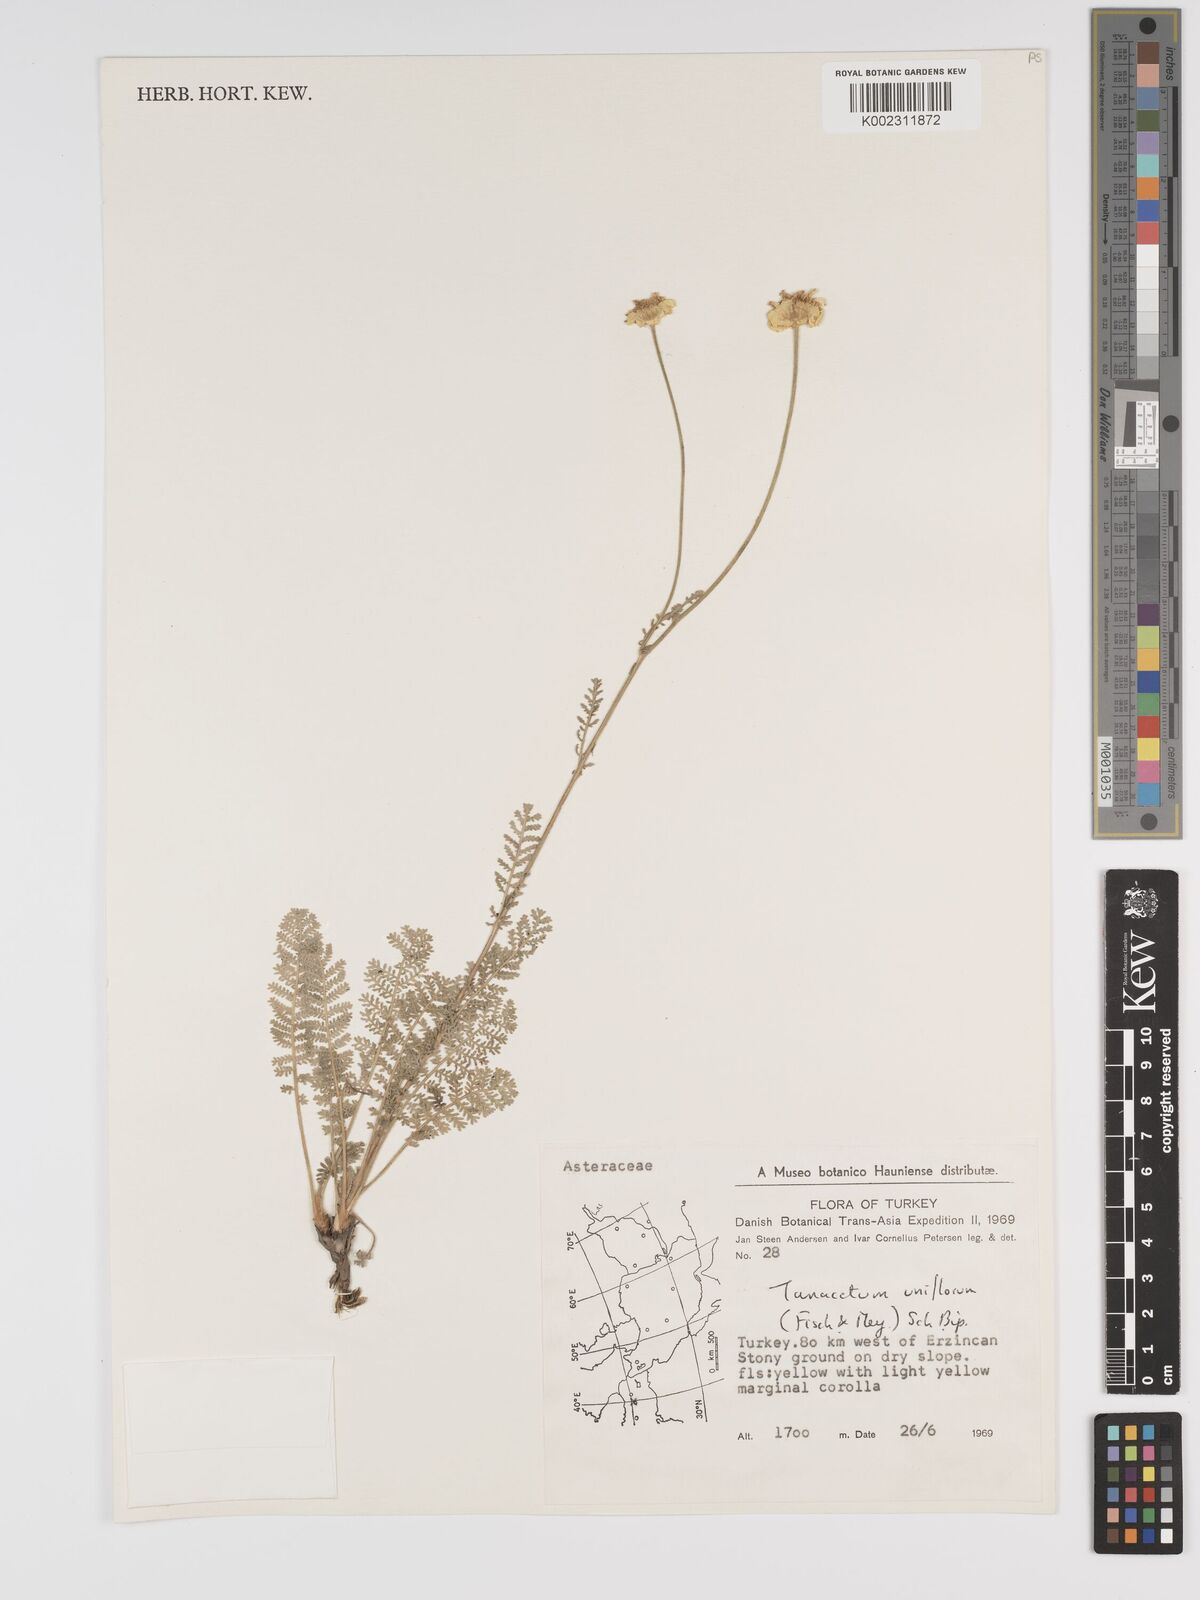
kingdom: Plantae
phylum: Tracheophyta
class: Magnoliopsida
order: Asterales
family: Asteraceae
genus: Tanacetum
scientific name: Tanacetum uniflorum
